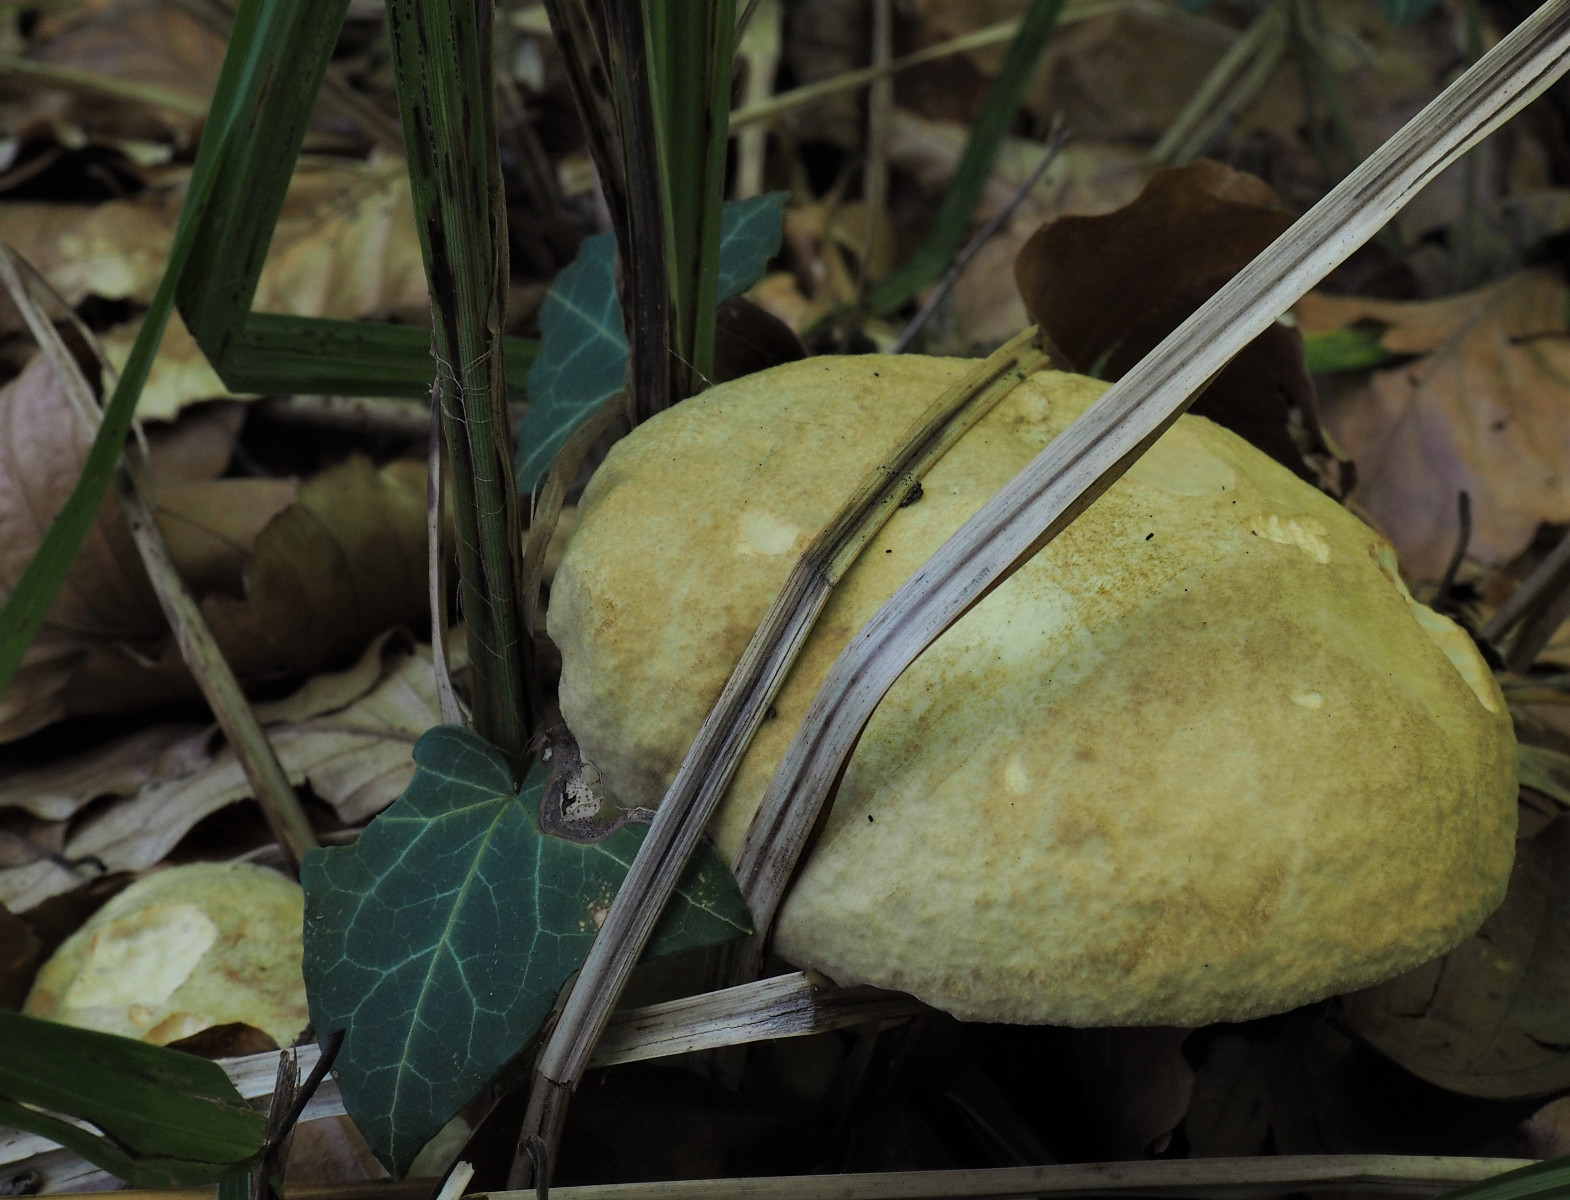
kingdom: Fungi
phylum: Basidiomycota
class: Agaricomycetes
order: Boletales
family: Paxillaceae
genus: Gyrodon
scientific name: Gyrodon lividus
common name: ellerørhat
